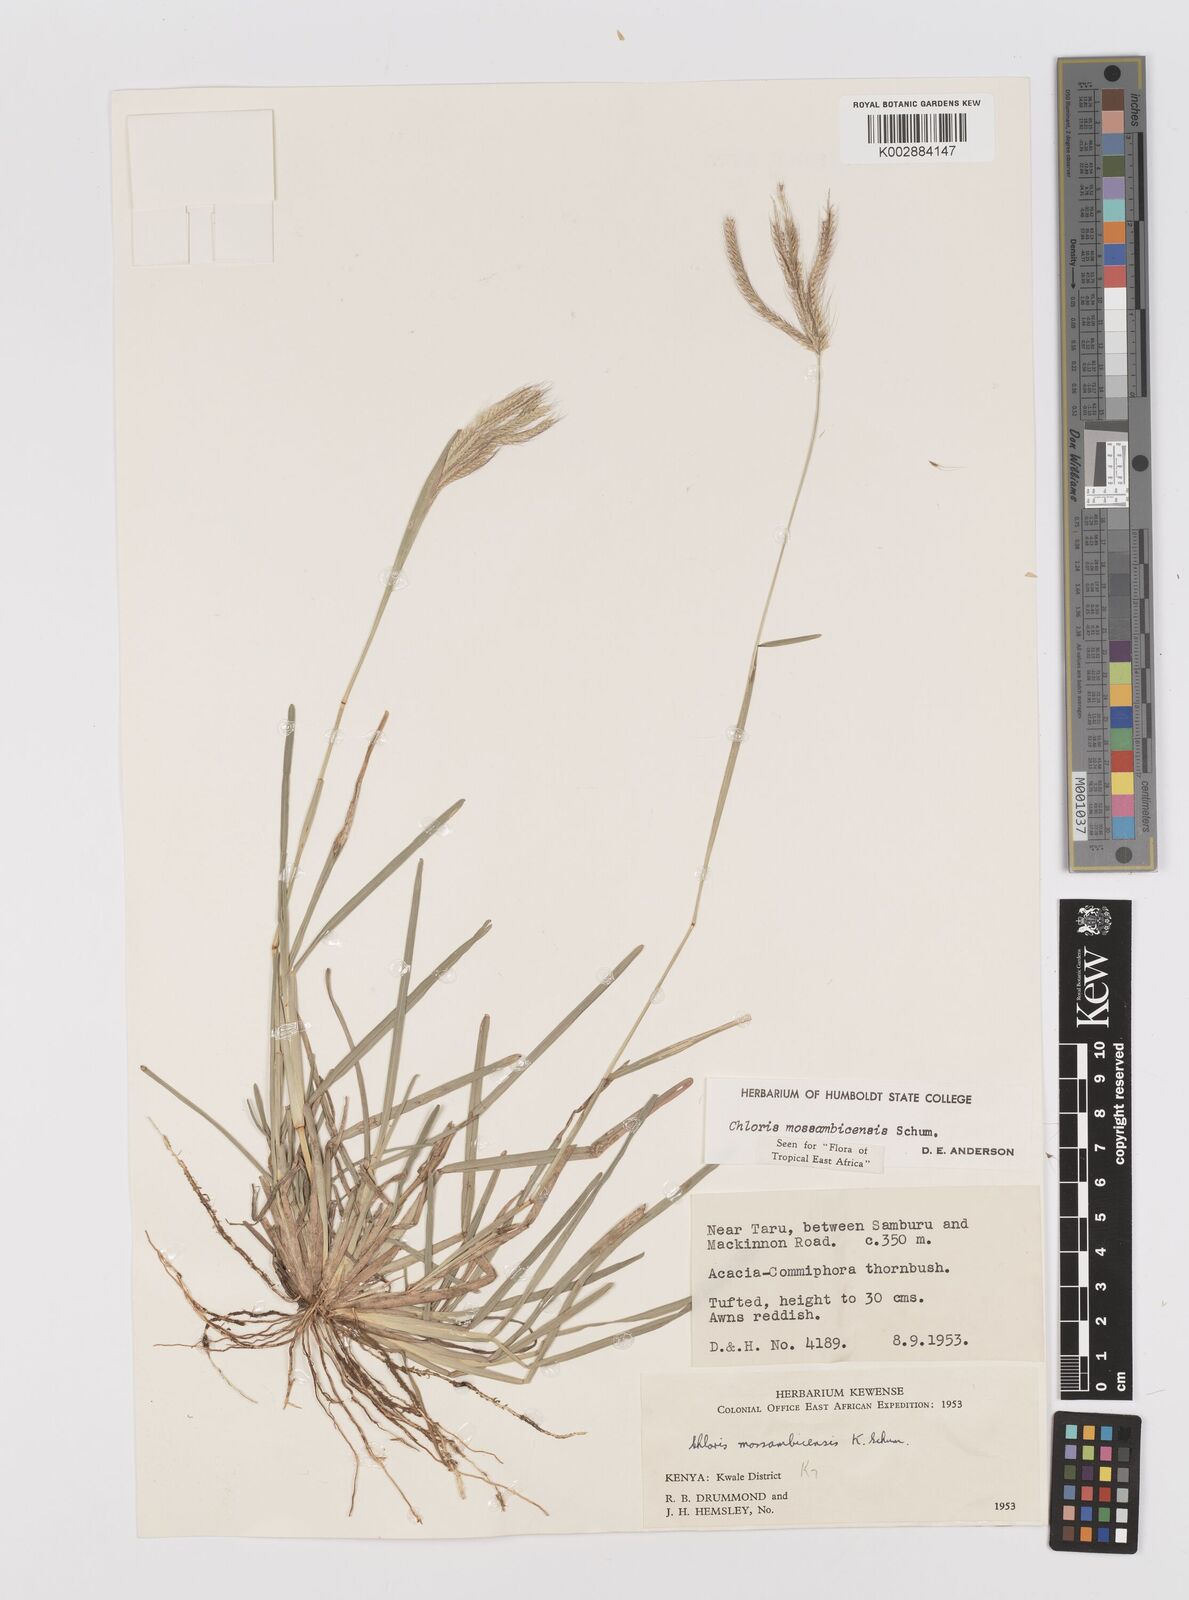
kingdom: Plantae
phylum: Tracheophyta
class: Liliopsida
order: Poales
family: Poaceae
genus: Chloris
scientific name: Chloris mossambicensis
